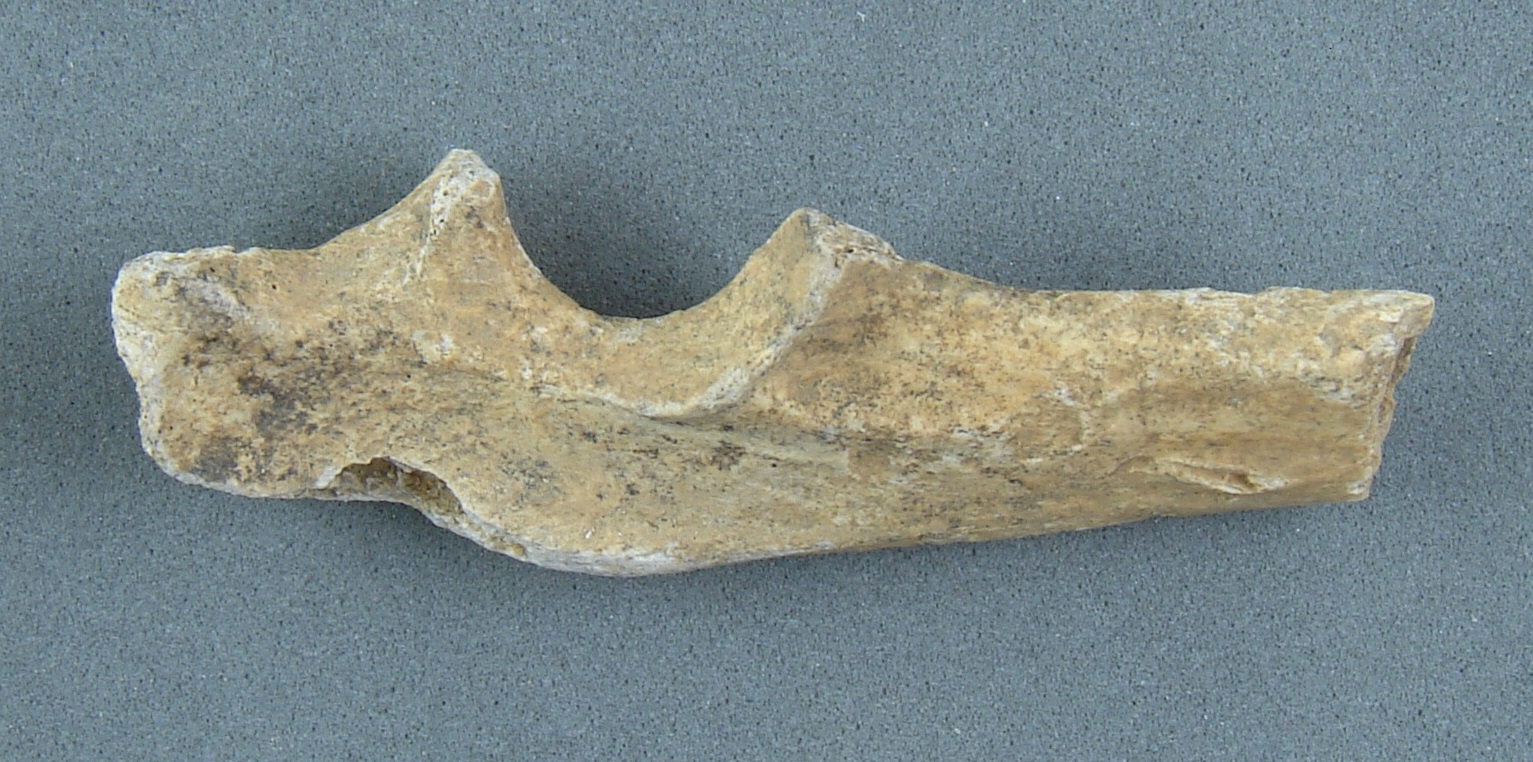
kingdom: Animalia
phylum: Chordata
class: Mammalia
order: Carnivora
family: Canidae
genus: Vulpes
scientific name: Vulpes vulpes
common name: Red fox
